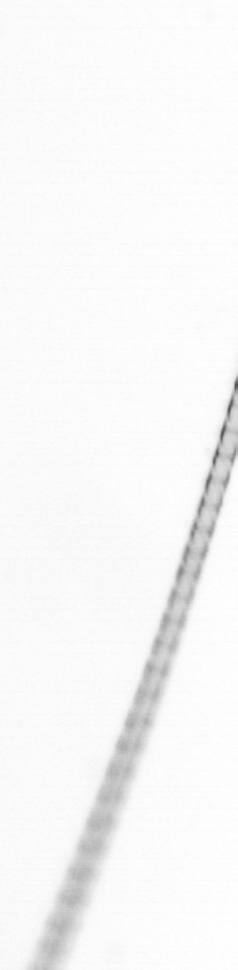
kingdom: Chromista
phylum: Ochrophyta
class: Bacillariophyceae
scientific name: Bacillariophyceae
